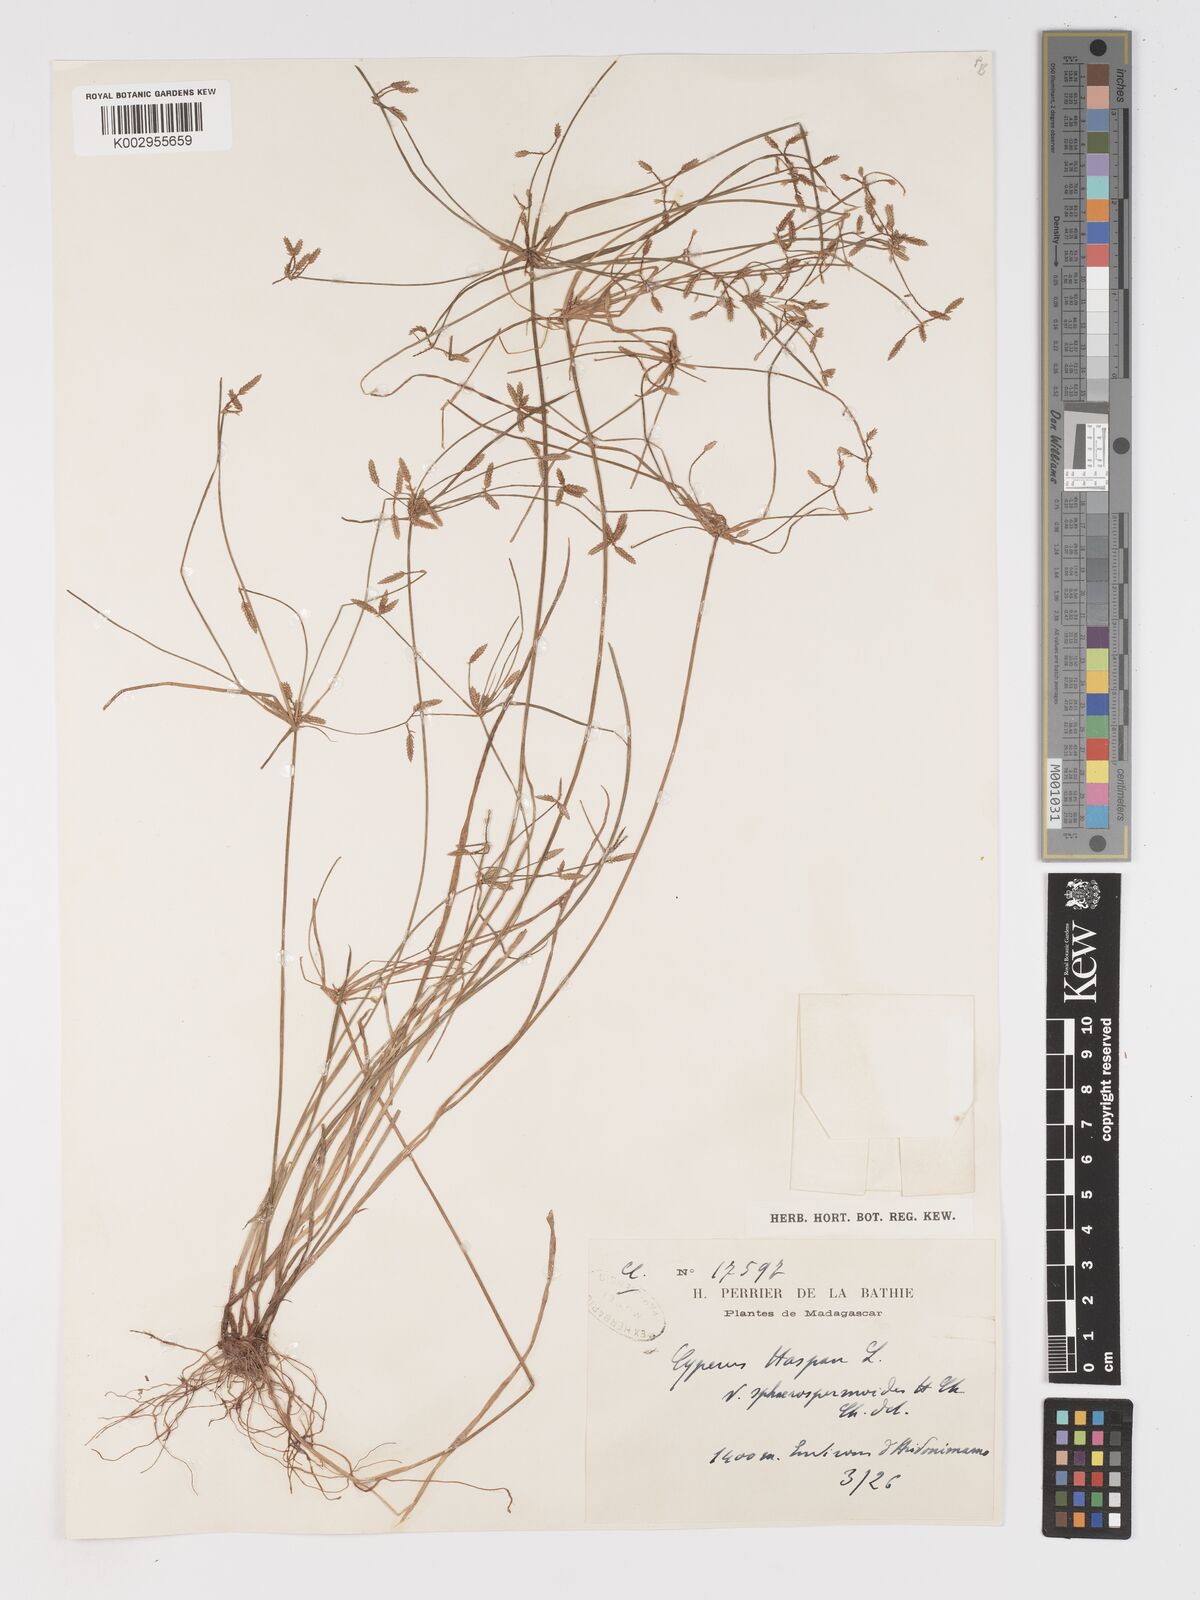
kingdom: Plantae
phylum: Tracheophyta
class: Liliopsida
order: Poales
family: Cyperaceae
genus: Cyperus
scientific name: Cyperus denudatus
